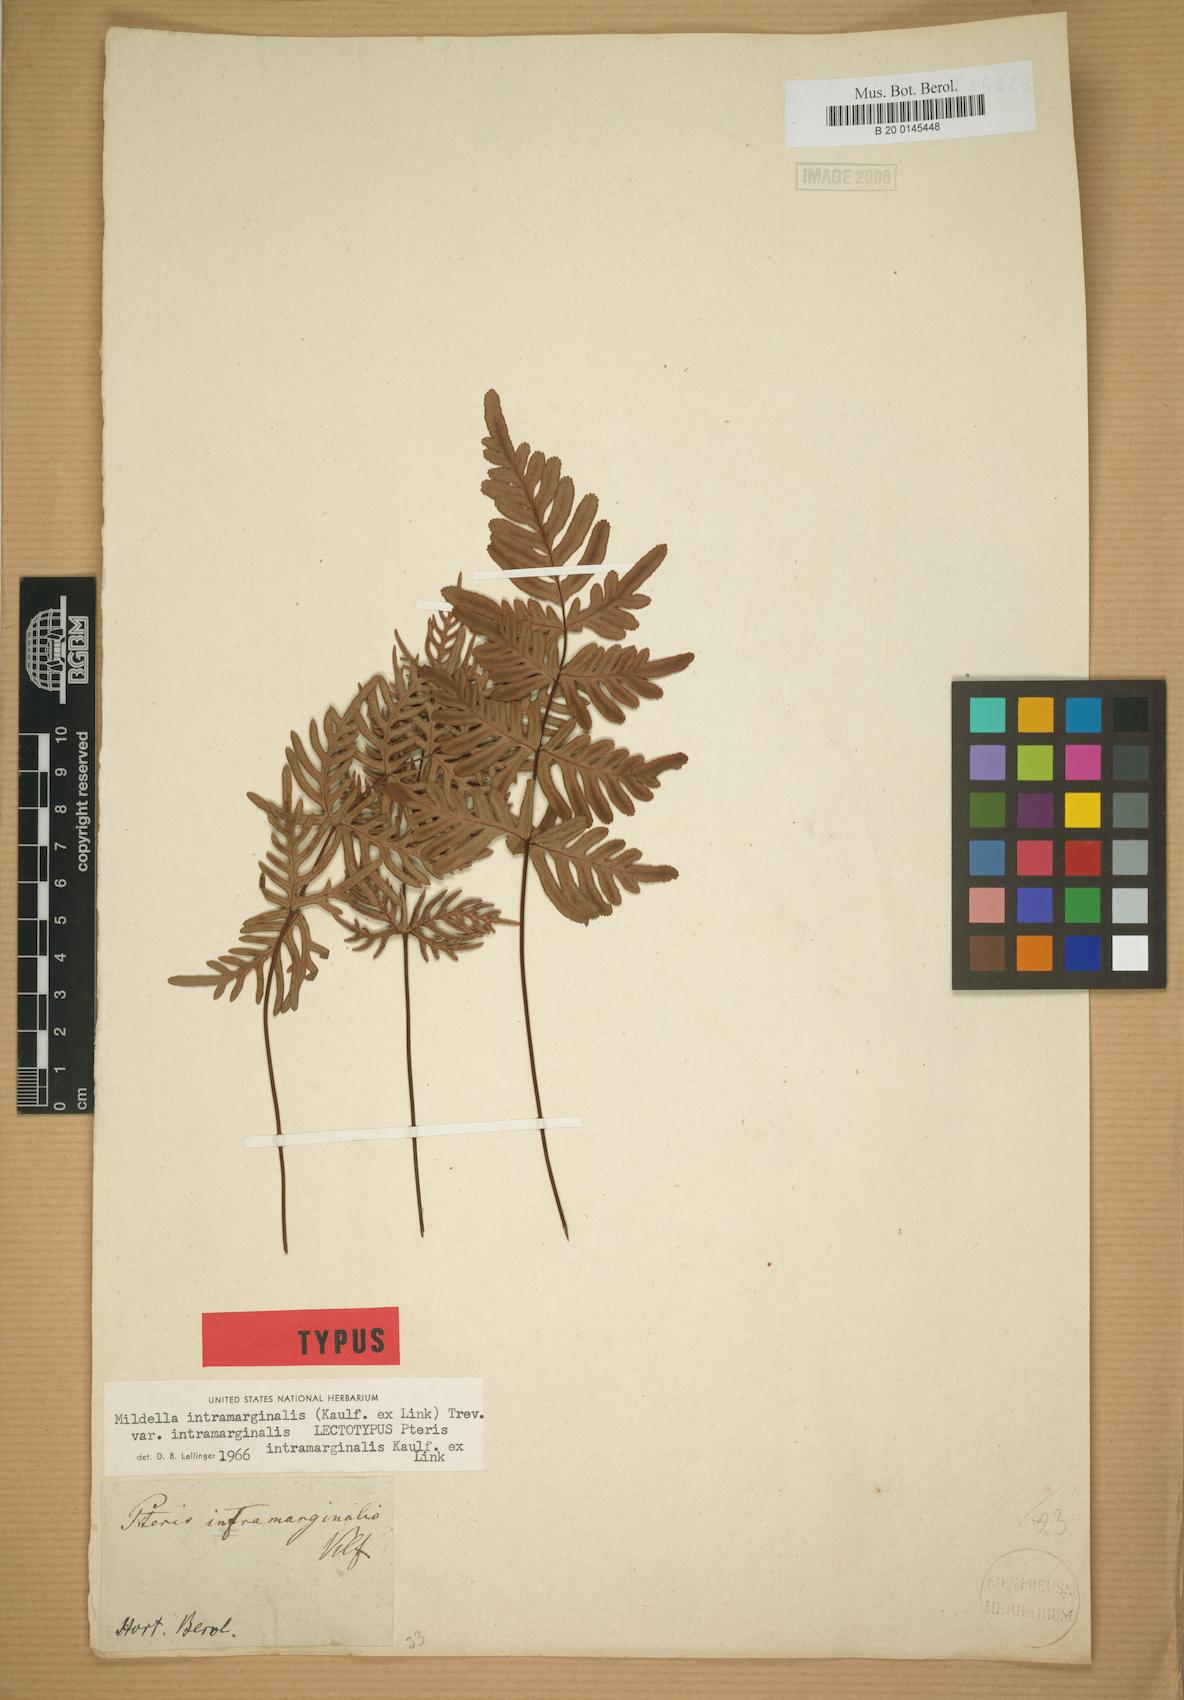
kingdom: Plantae
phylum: Tracheophyta
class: Polypodiopsida
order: Polypodiales
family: Pteridaceae
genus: Mildella
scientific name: Mildella intramarginalis
